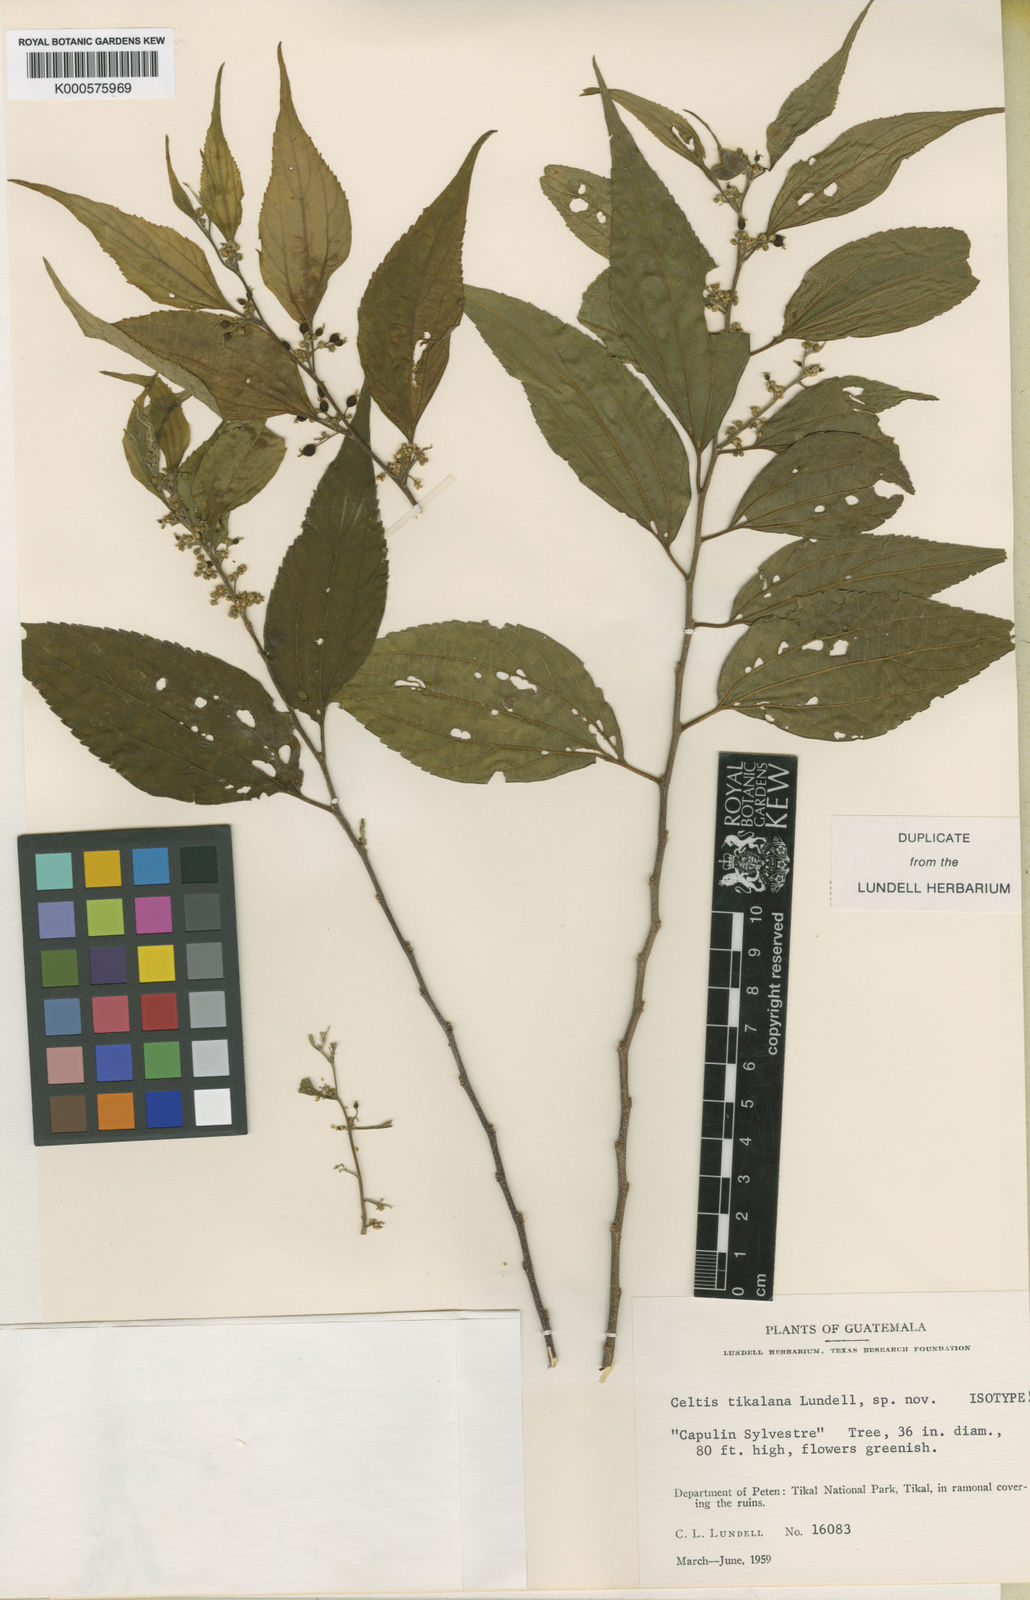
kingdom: Plantae
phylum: Tracheophyta
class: Magnoliopsida
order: Rosales
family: Cannabaceae
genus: Celtis
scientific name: Celtis tikalana
